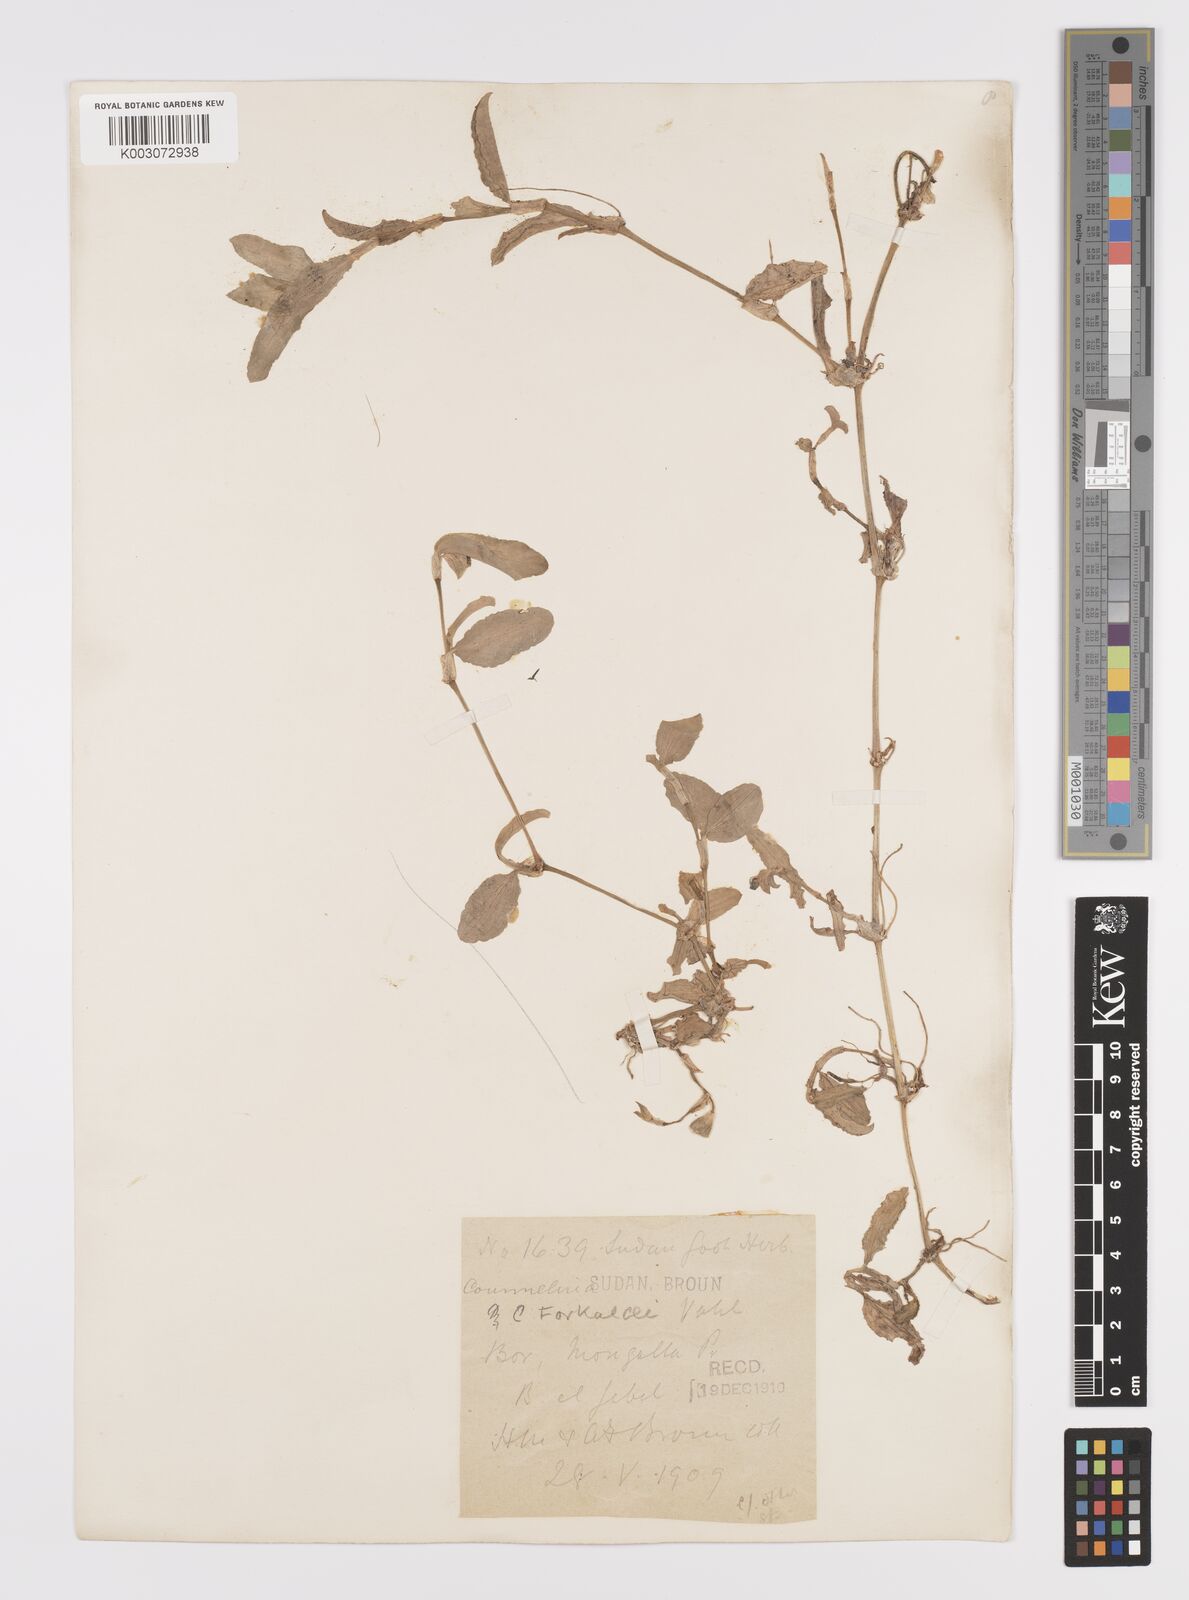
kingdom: Plantae
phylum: Tracheophyta
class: Liliopsida
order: Commelinales
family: Commelinaceae
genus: Commelina
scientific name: Commelina forskaolii
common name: Rat's ear
